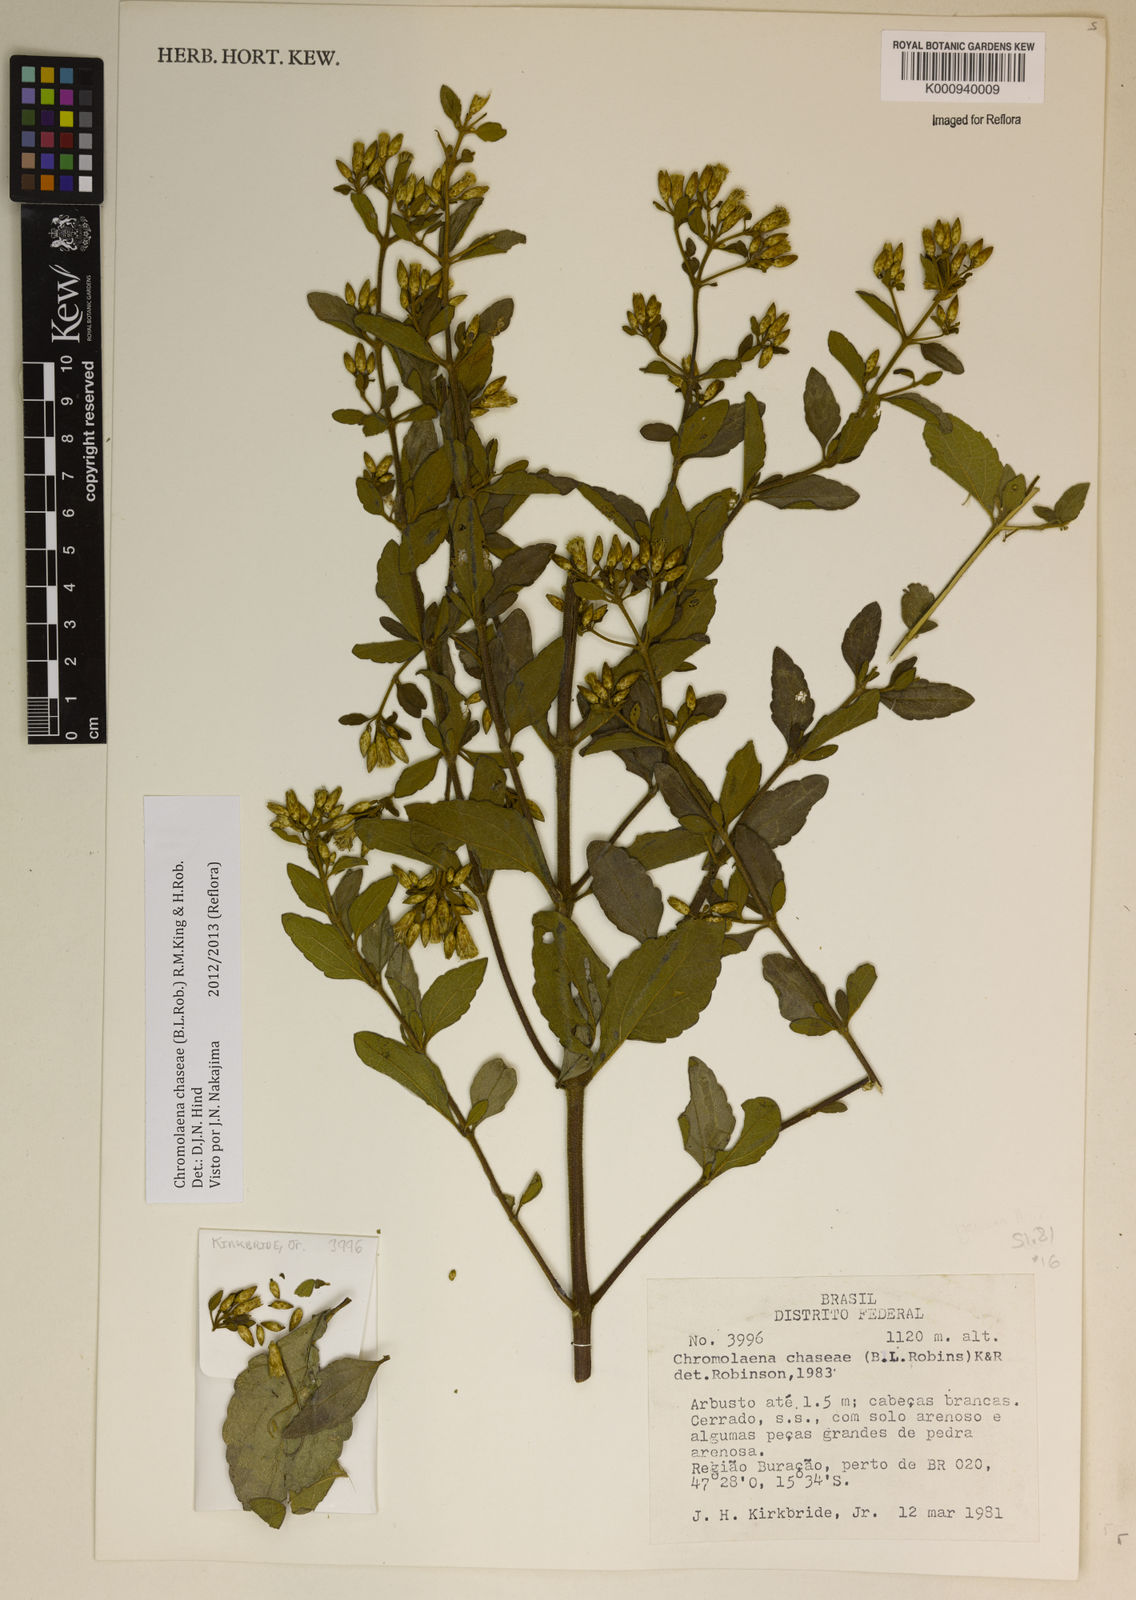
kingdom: Plantae
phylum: Tracheophyta
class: Magnoliopsida
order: Asterales
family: Asteraceae
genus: Chromolaena
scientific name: Chromolaena chaseae
